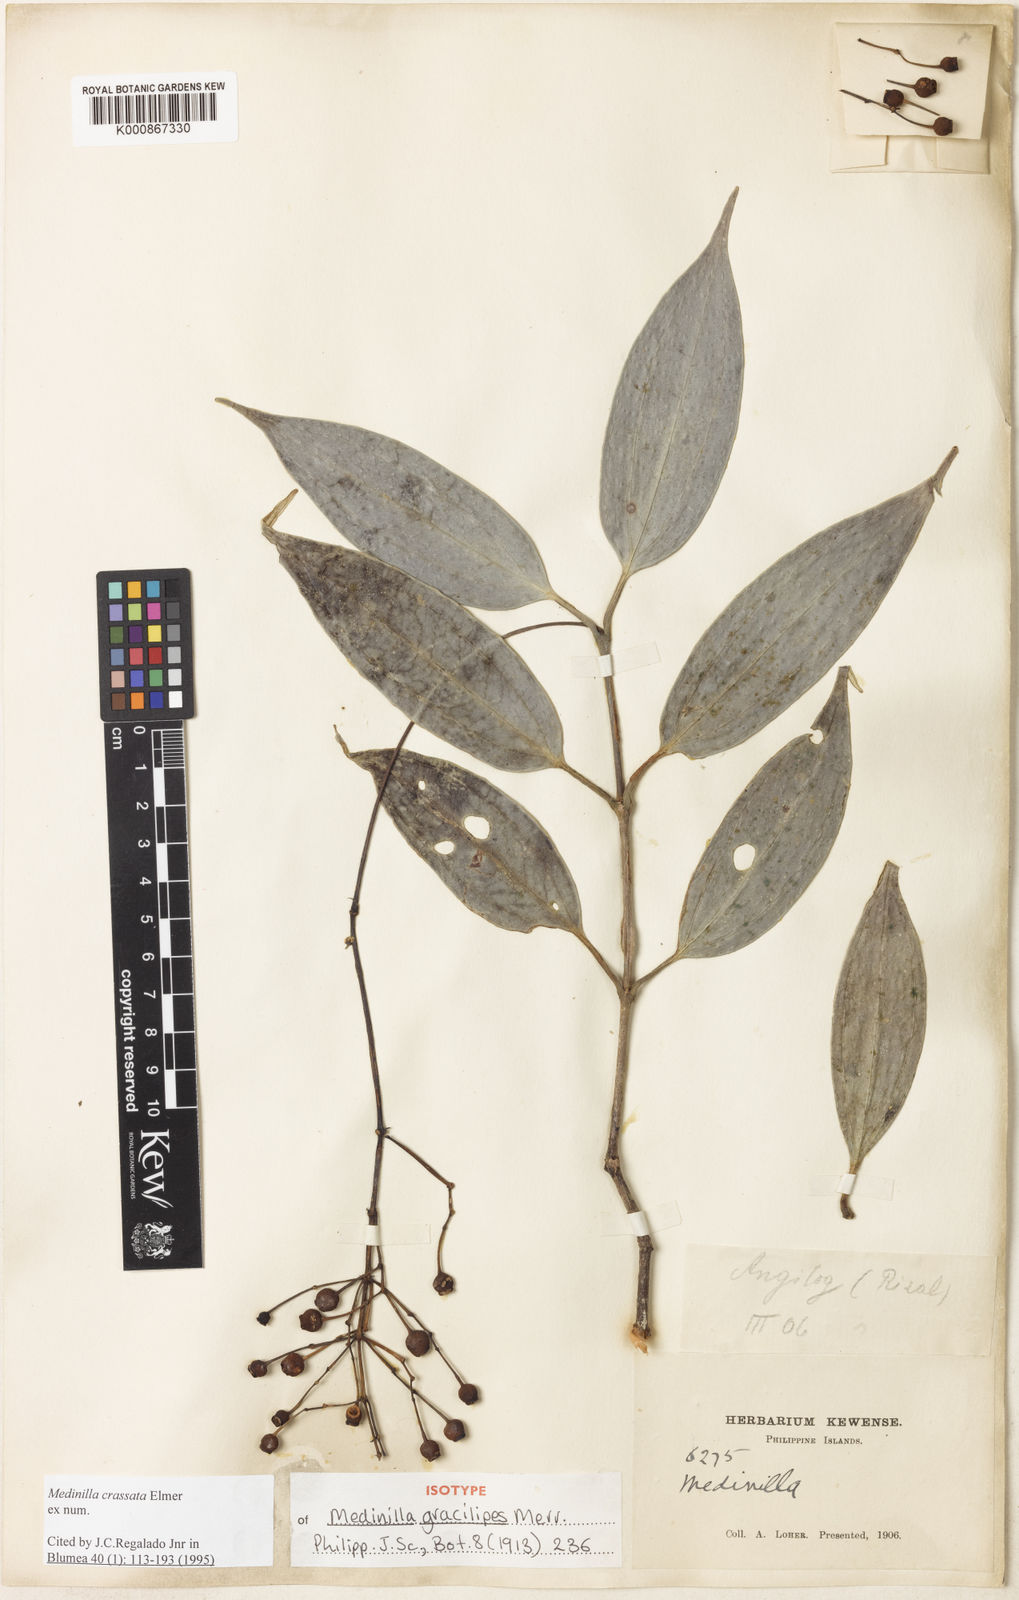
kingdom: Plantae
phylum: Tracheophyta
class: Magnoliopsida
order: Myrtales
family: Melastomataceae
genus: Medinilla
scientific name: Medinilla crassata
